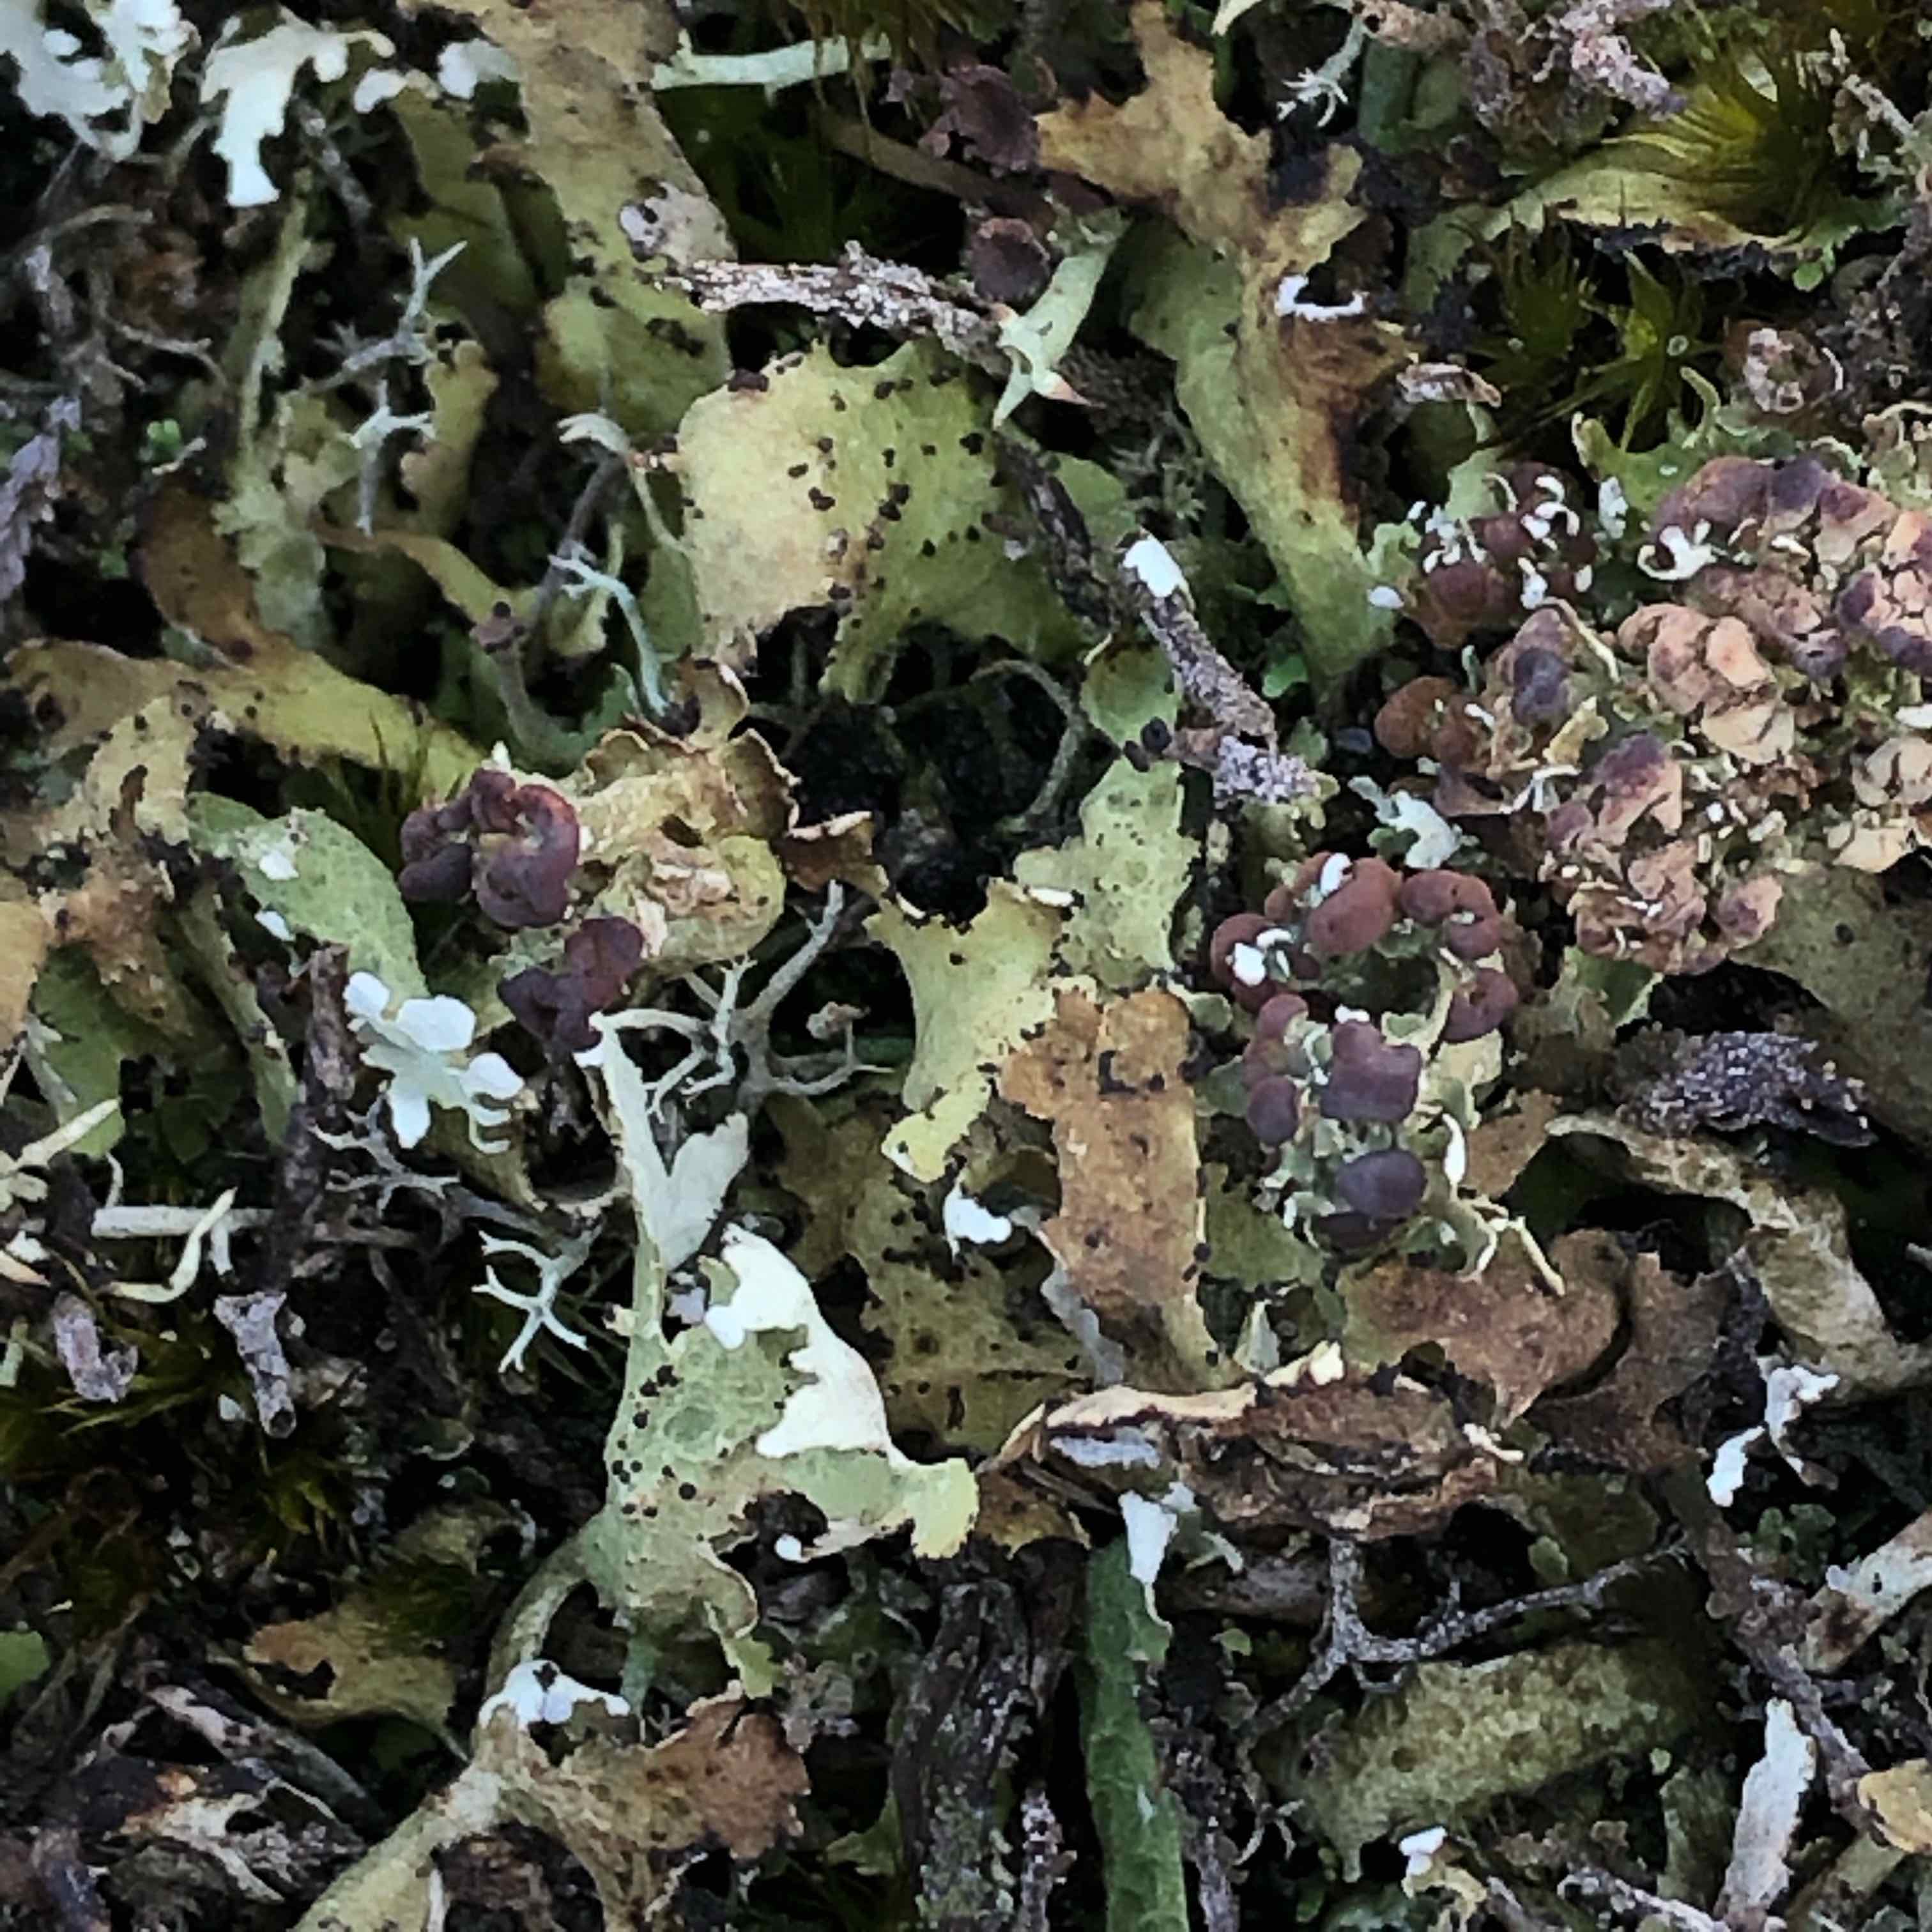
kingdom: Fungi
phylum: Ascomycota
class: Lecanoromycetes
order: Lecanorales
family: Cladoniaceae
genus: Cladonia
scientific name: Cladonia foliacea
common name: fliget bægerlav
